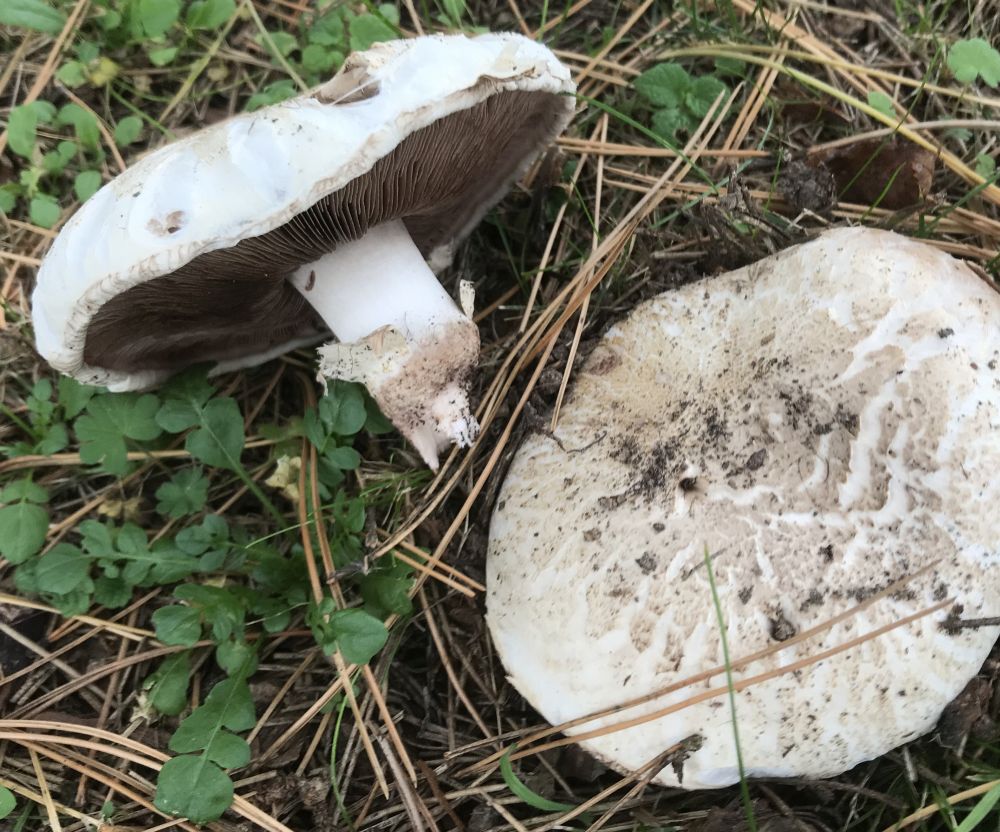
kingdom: Fungi
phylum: Basidiomycota
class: Agaricomycetes
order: Agaricales
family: Agaricaceae
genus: Agaricus
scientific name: Agaricus bernardii
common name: strandengs-champignon
